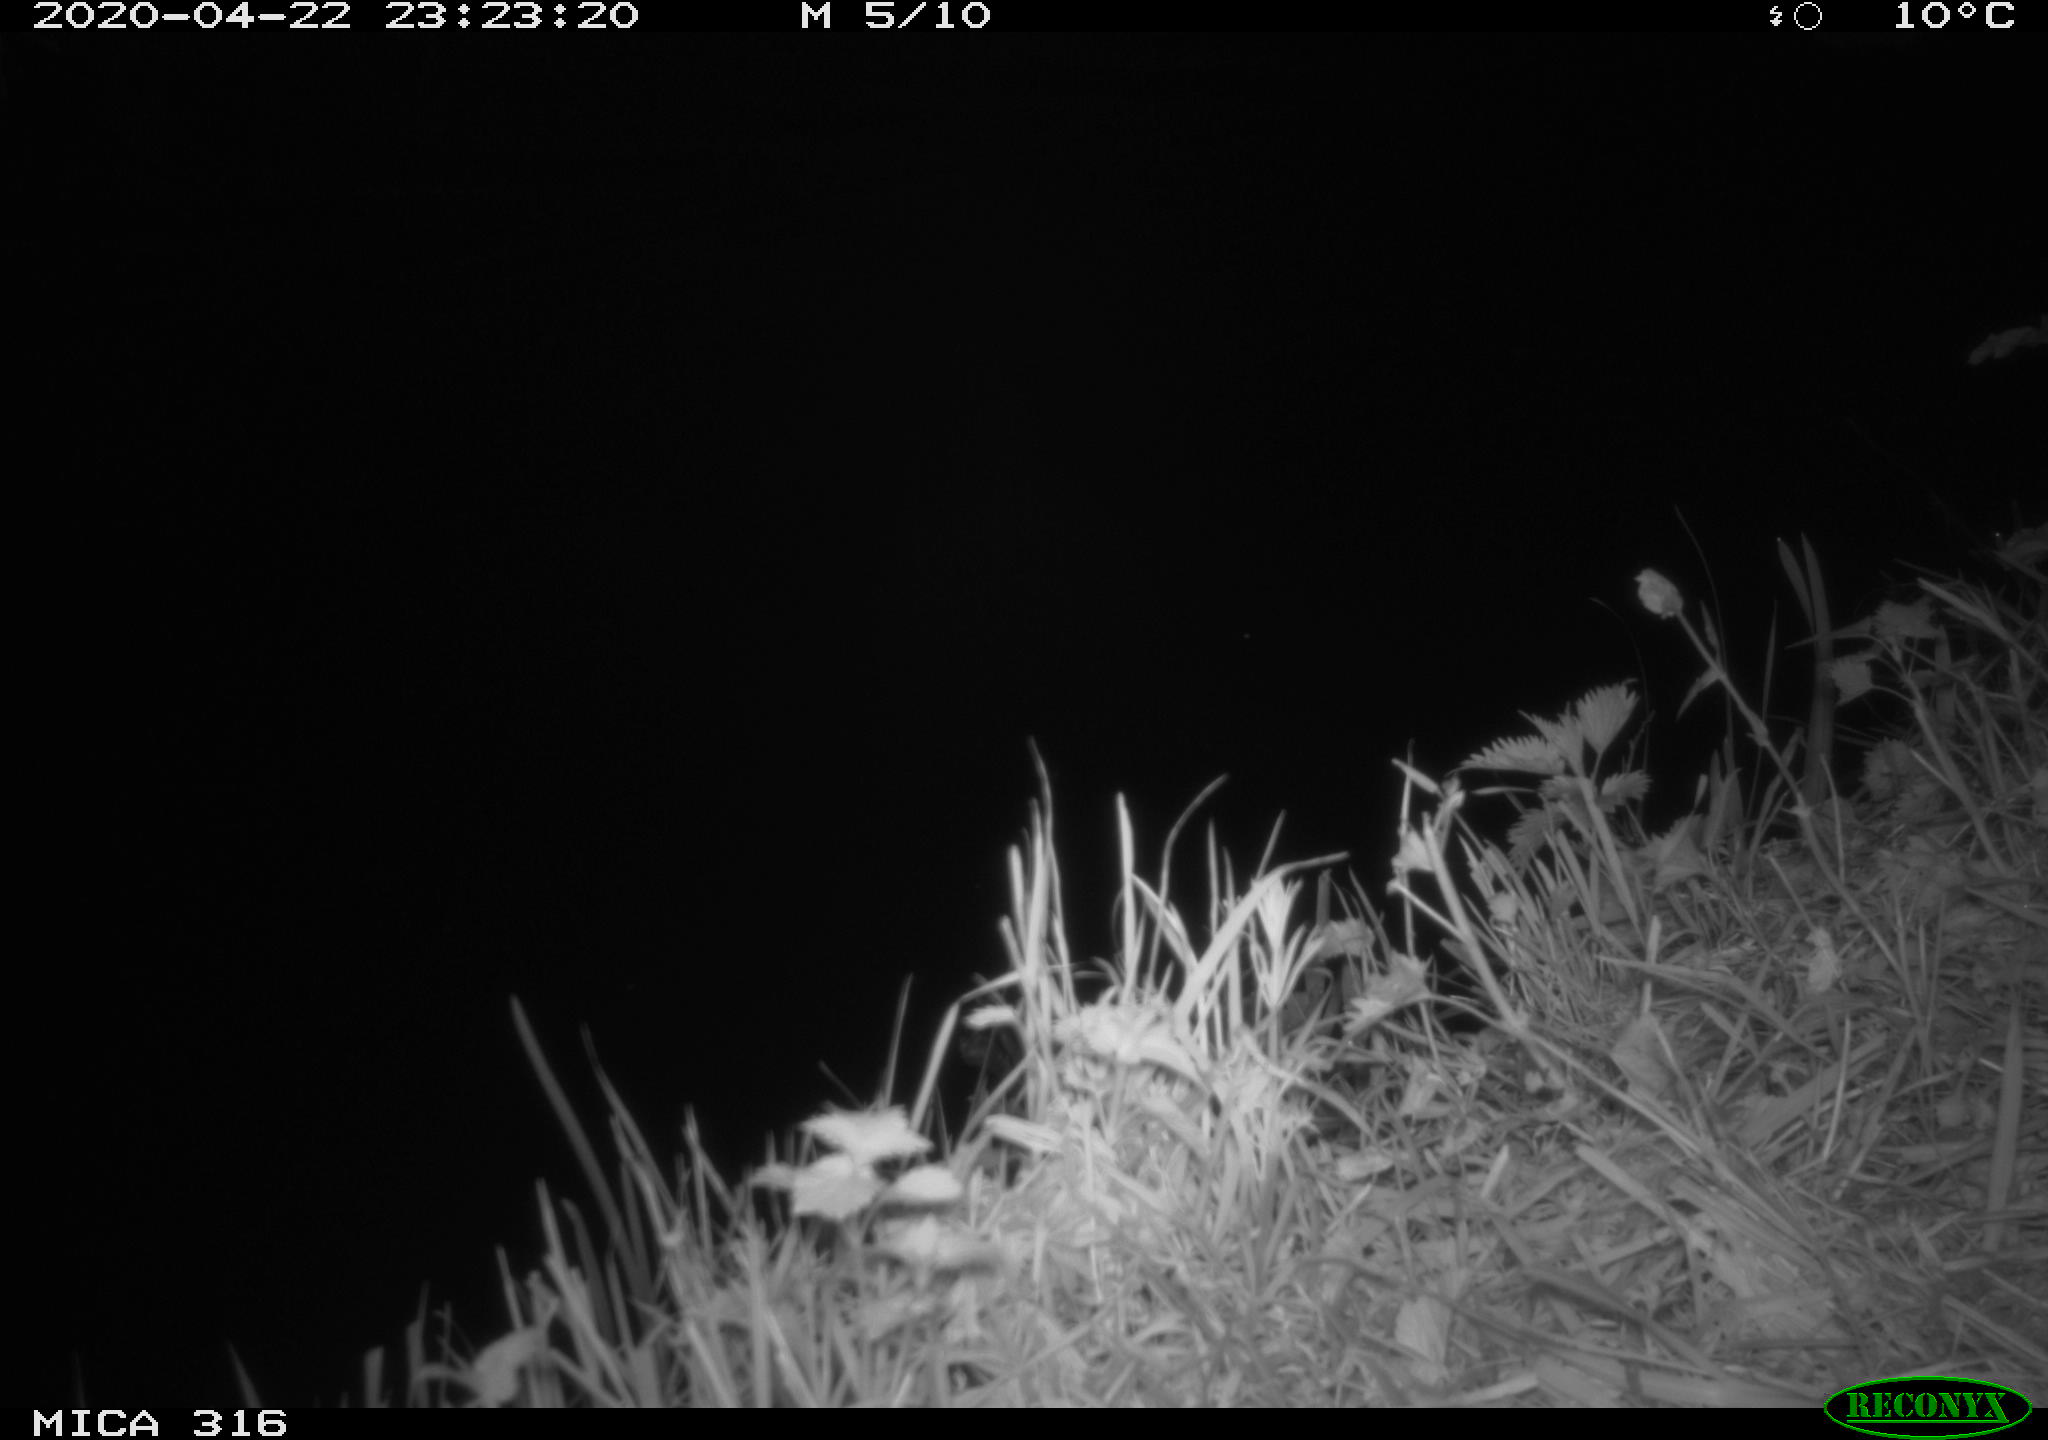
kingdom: Animalia
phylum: Chordata
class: Mammalia
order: Rodentia
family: Cricetidae
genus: Ondatra
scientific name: Ondatra zibethicus
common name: Muskrat
